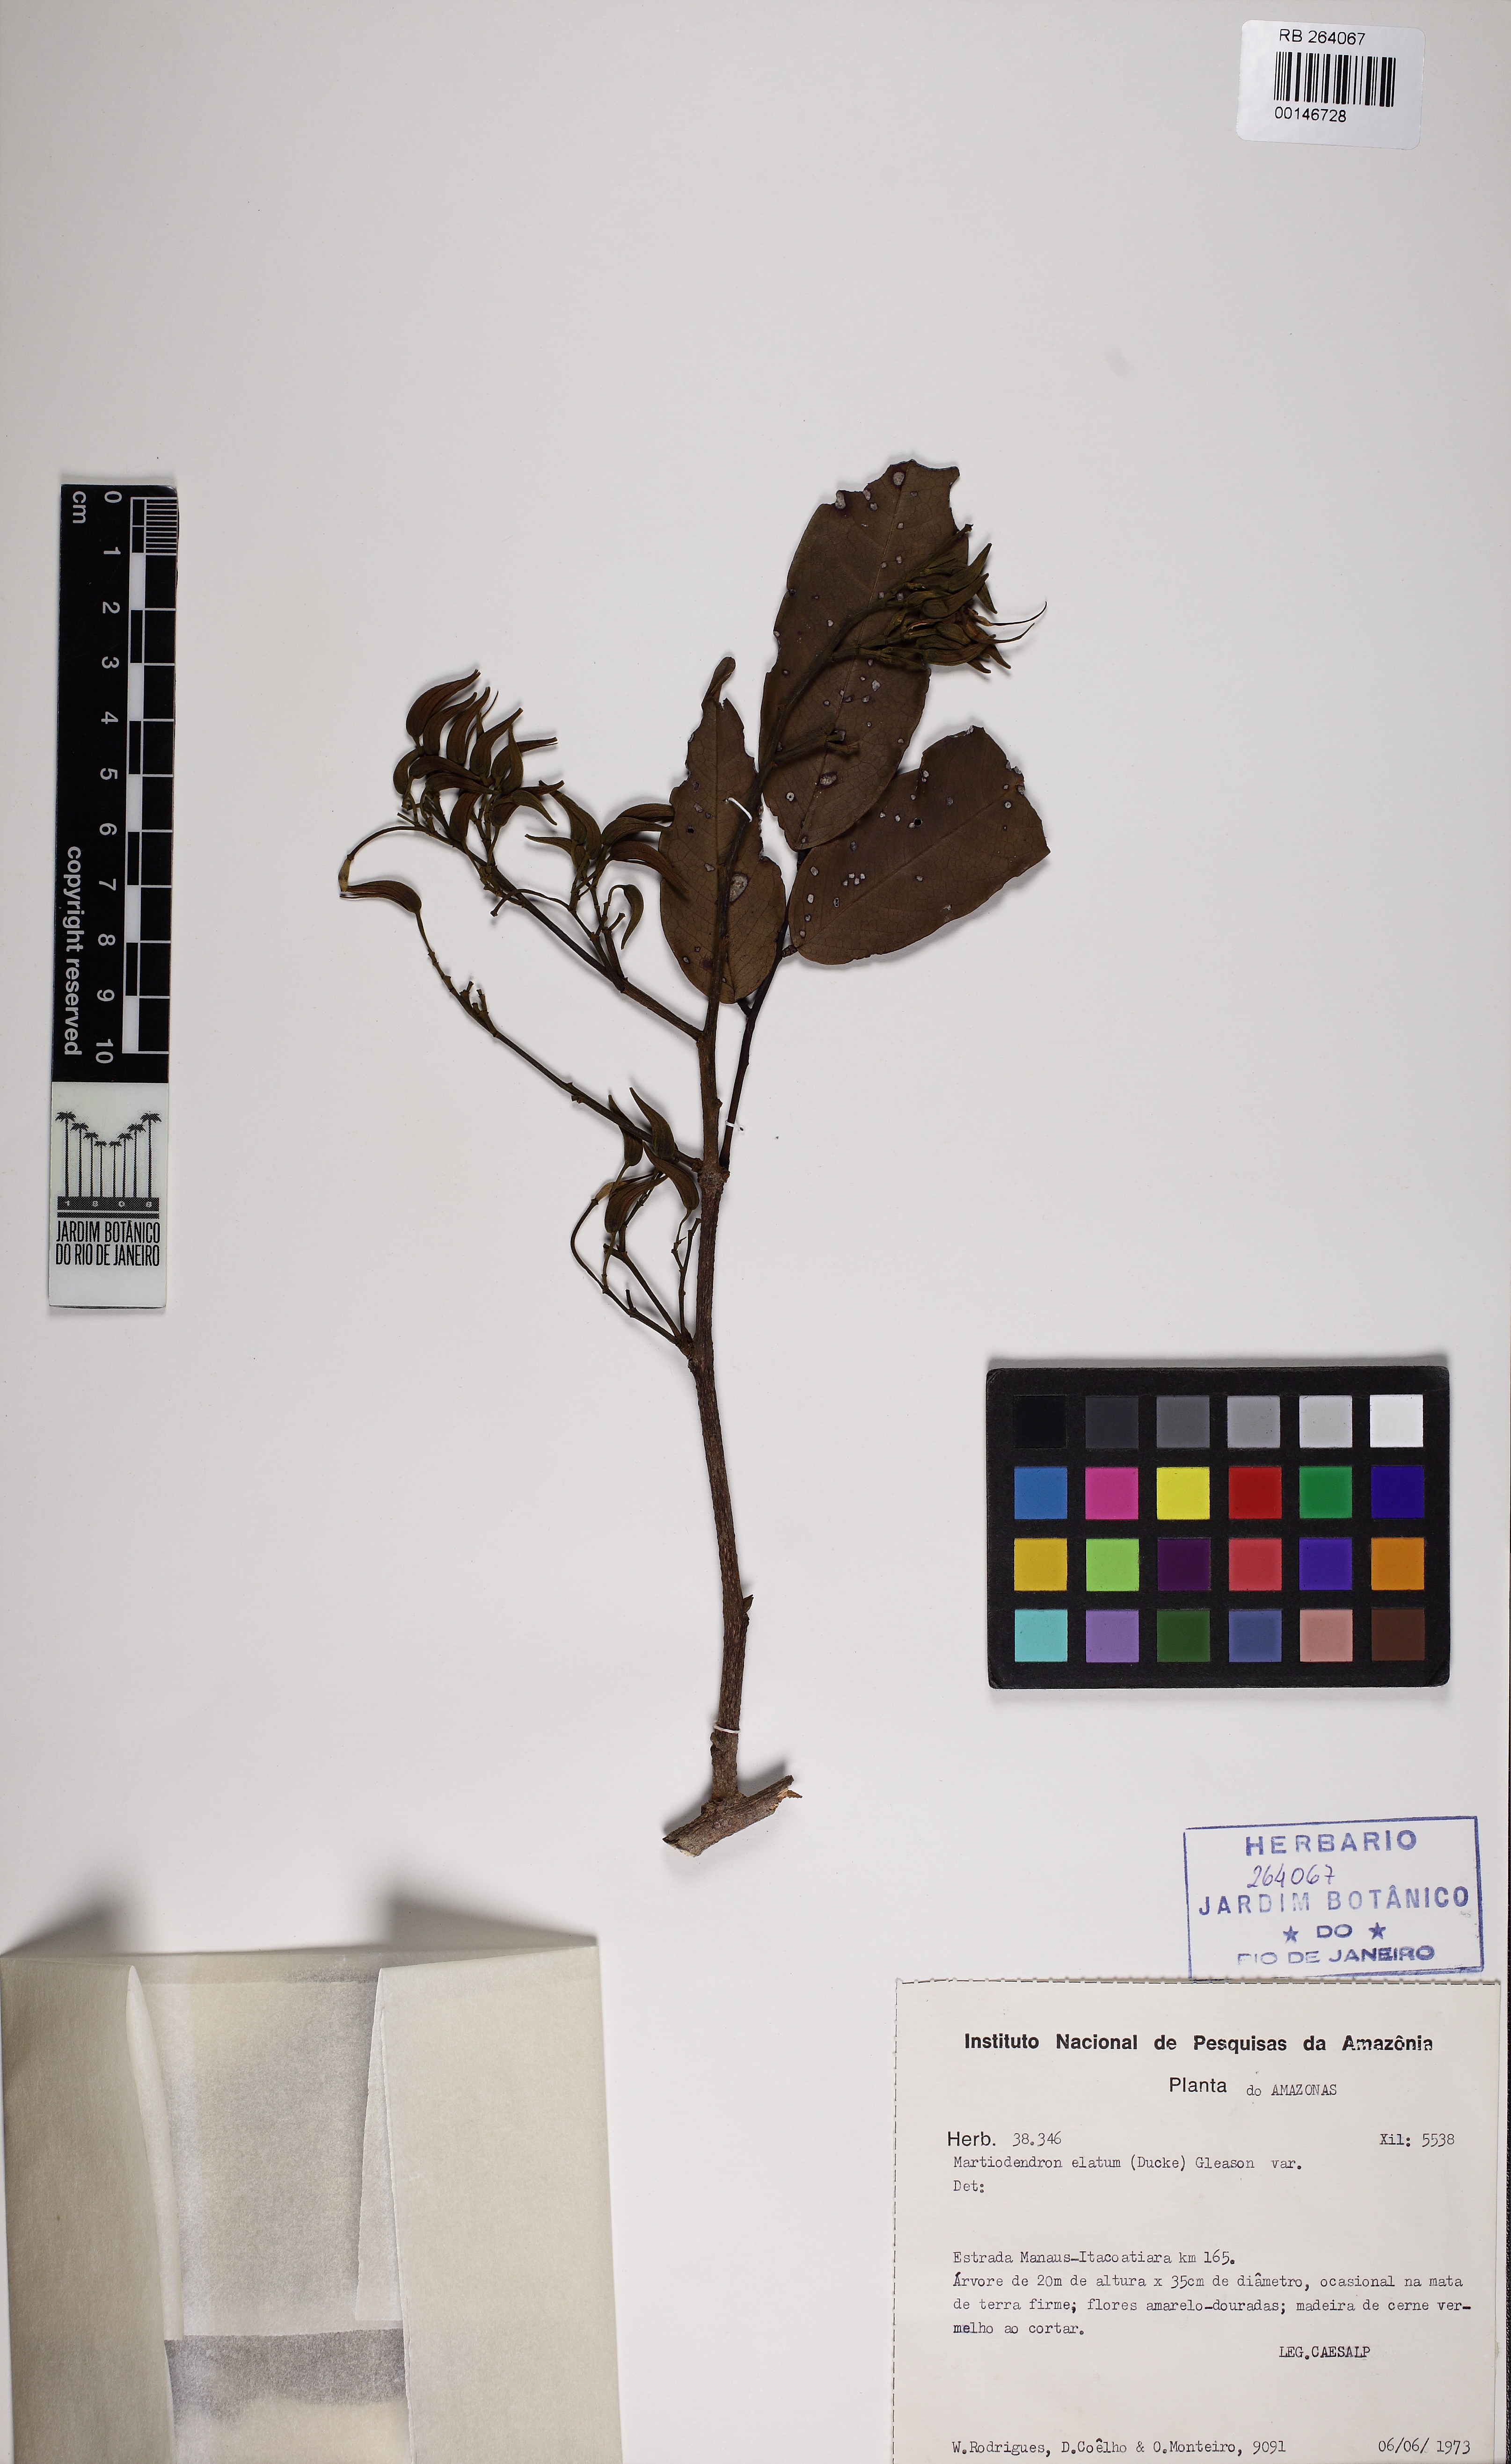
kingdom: Plantae
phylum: Tracheophyta
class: Magnoliopsida
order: Fabales
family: Fabaceae
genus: Martiodendron
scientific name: Martiodendron parviflorum
